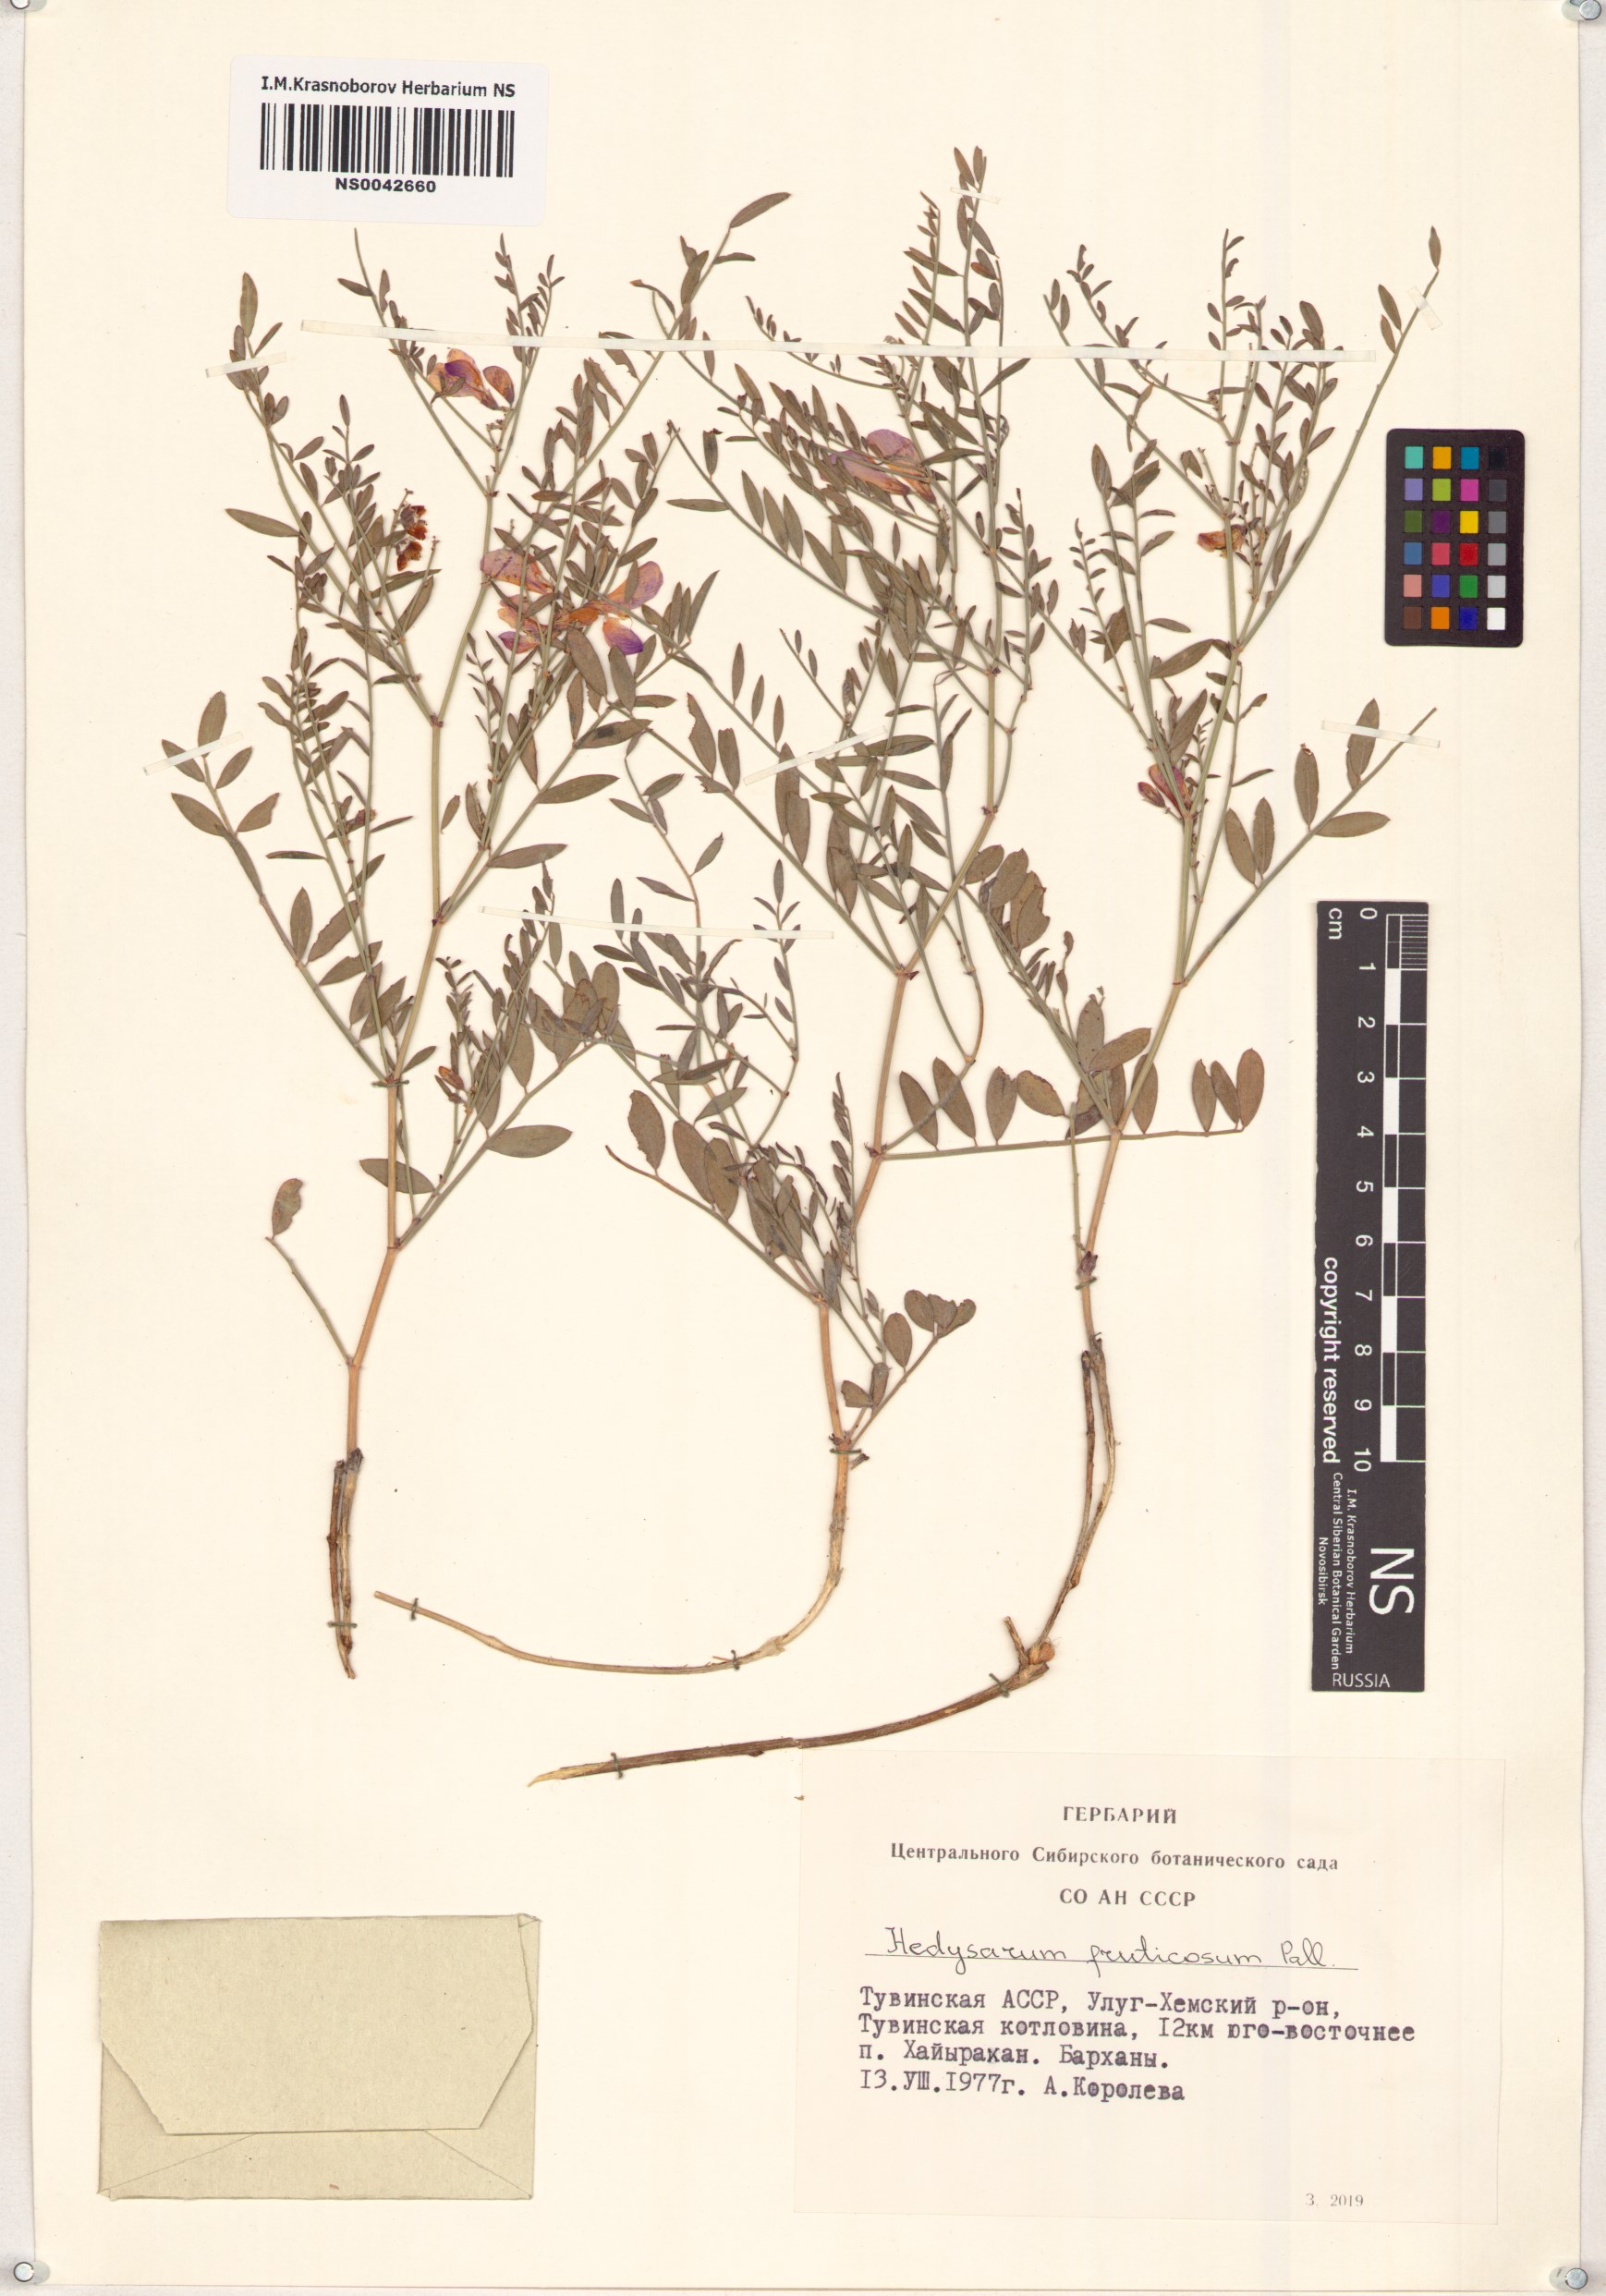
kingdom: Plantae
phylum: Tracheophyta
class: Magnoliopsida
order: Fabales
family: Fabaceae
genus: Corethrodendron
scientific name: Corethrodendron fruticosum
